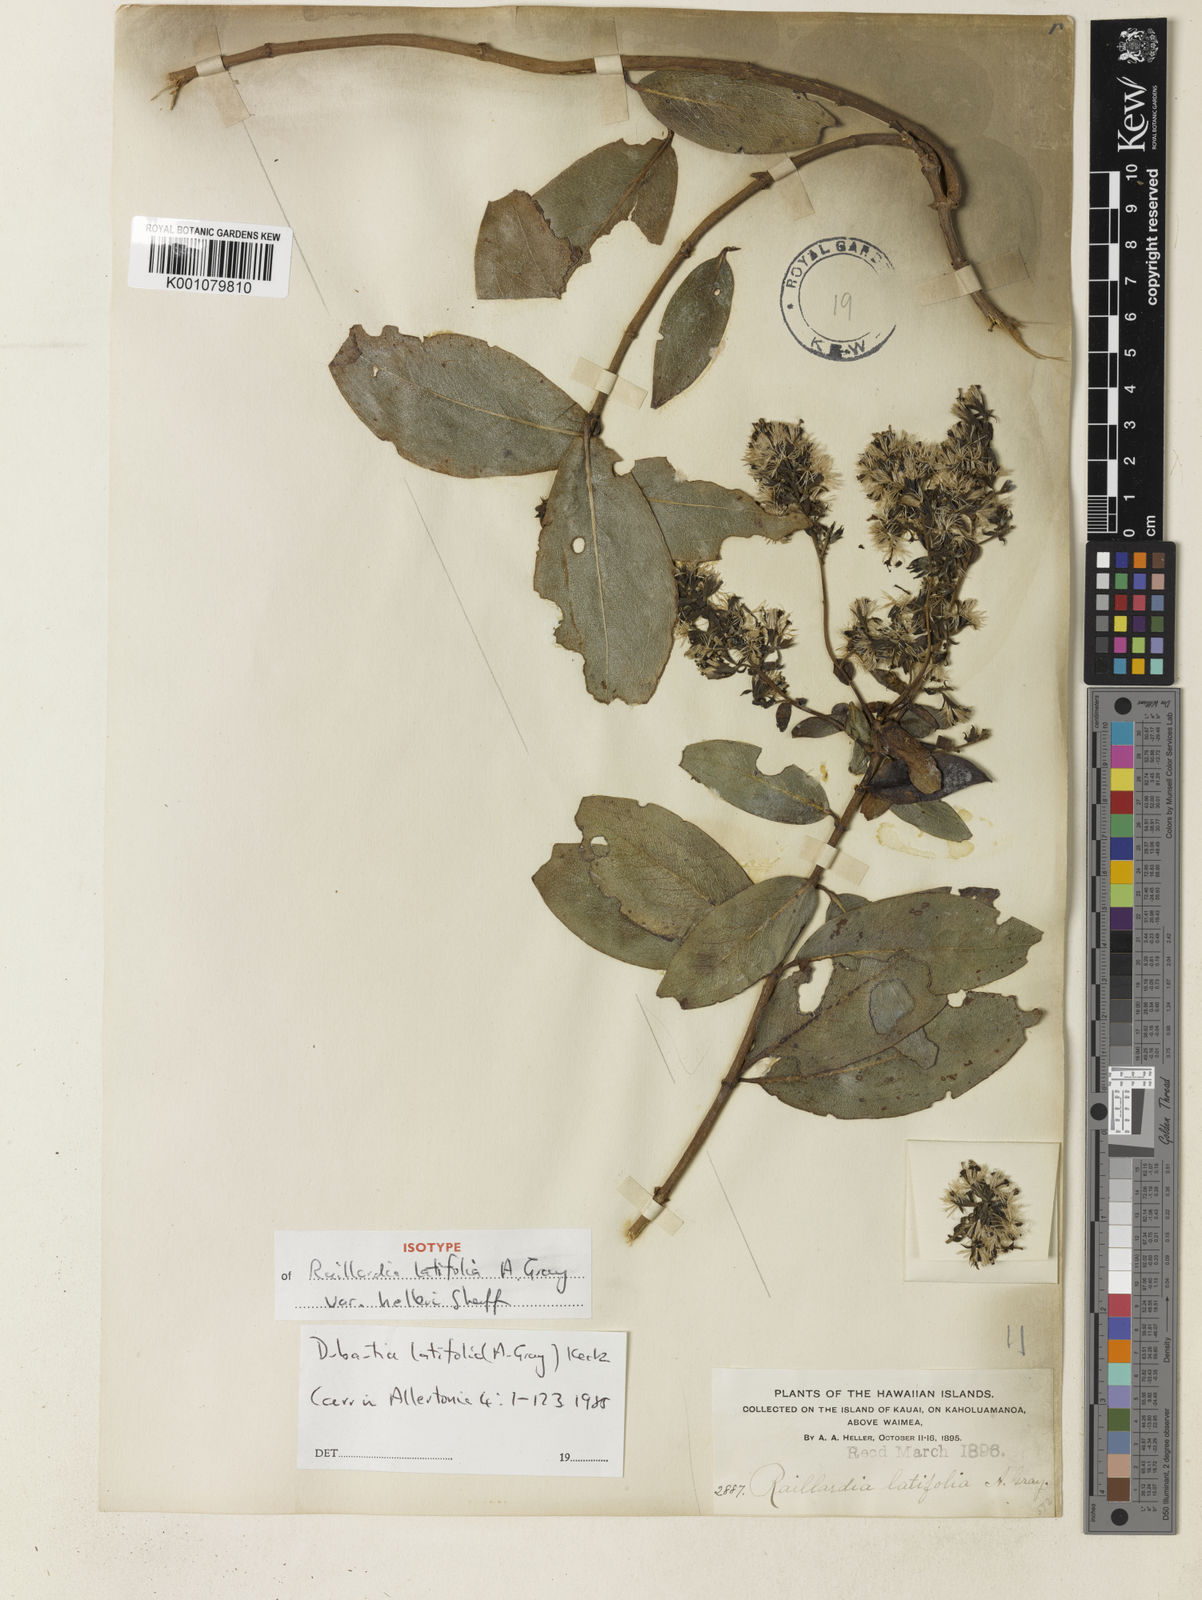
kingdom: Plantae
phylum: Tracheophyta
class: Magnoliopsida
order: Asterales
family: Asteraceae
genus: Dubautia
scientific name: Dubautia latifolia
